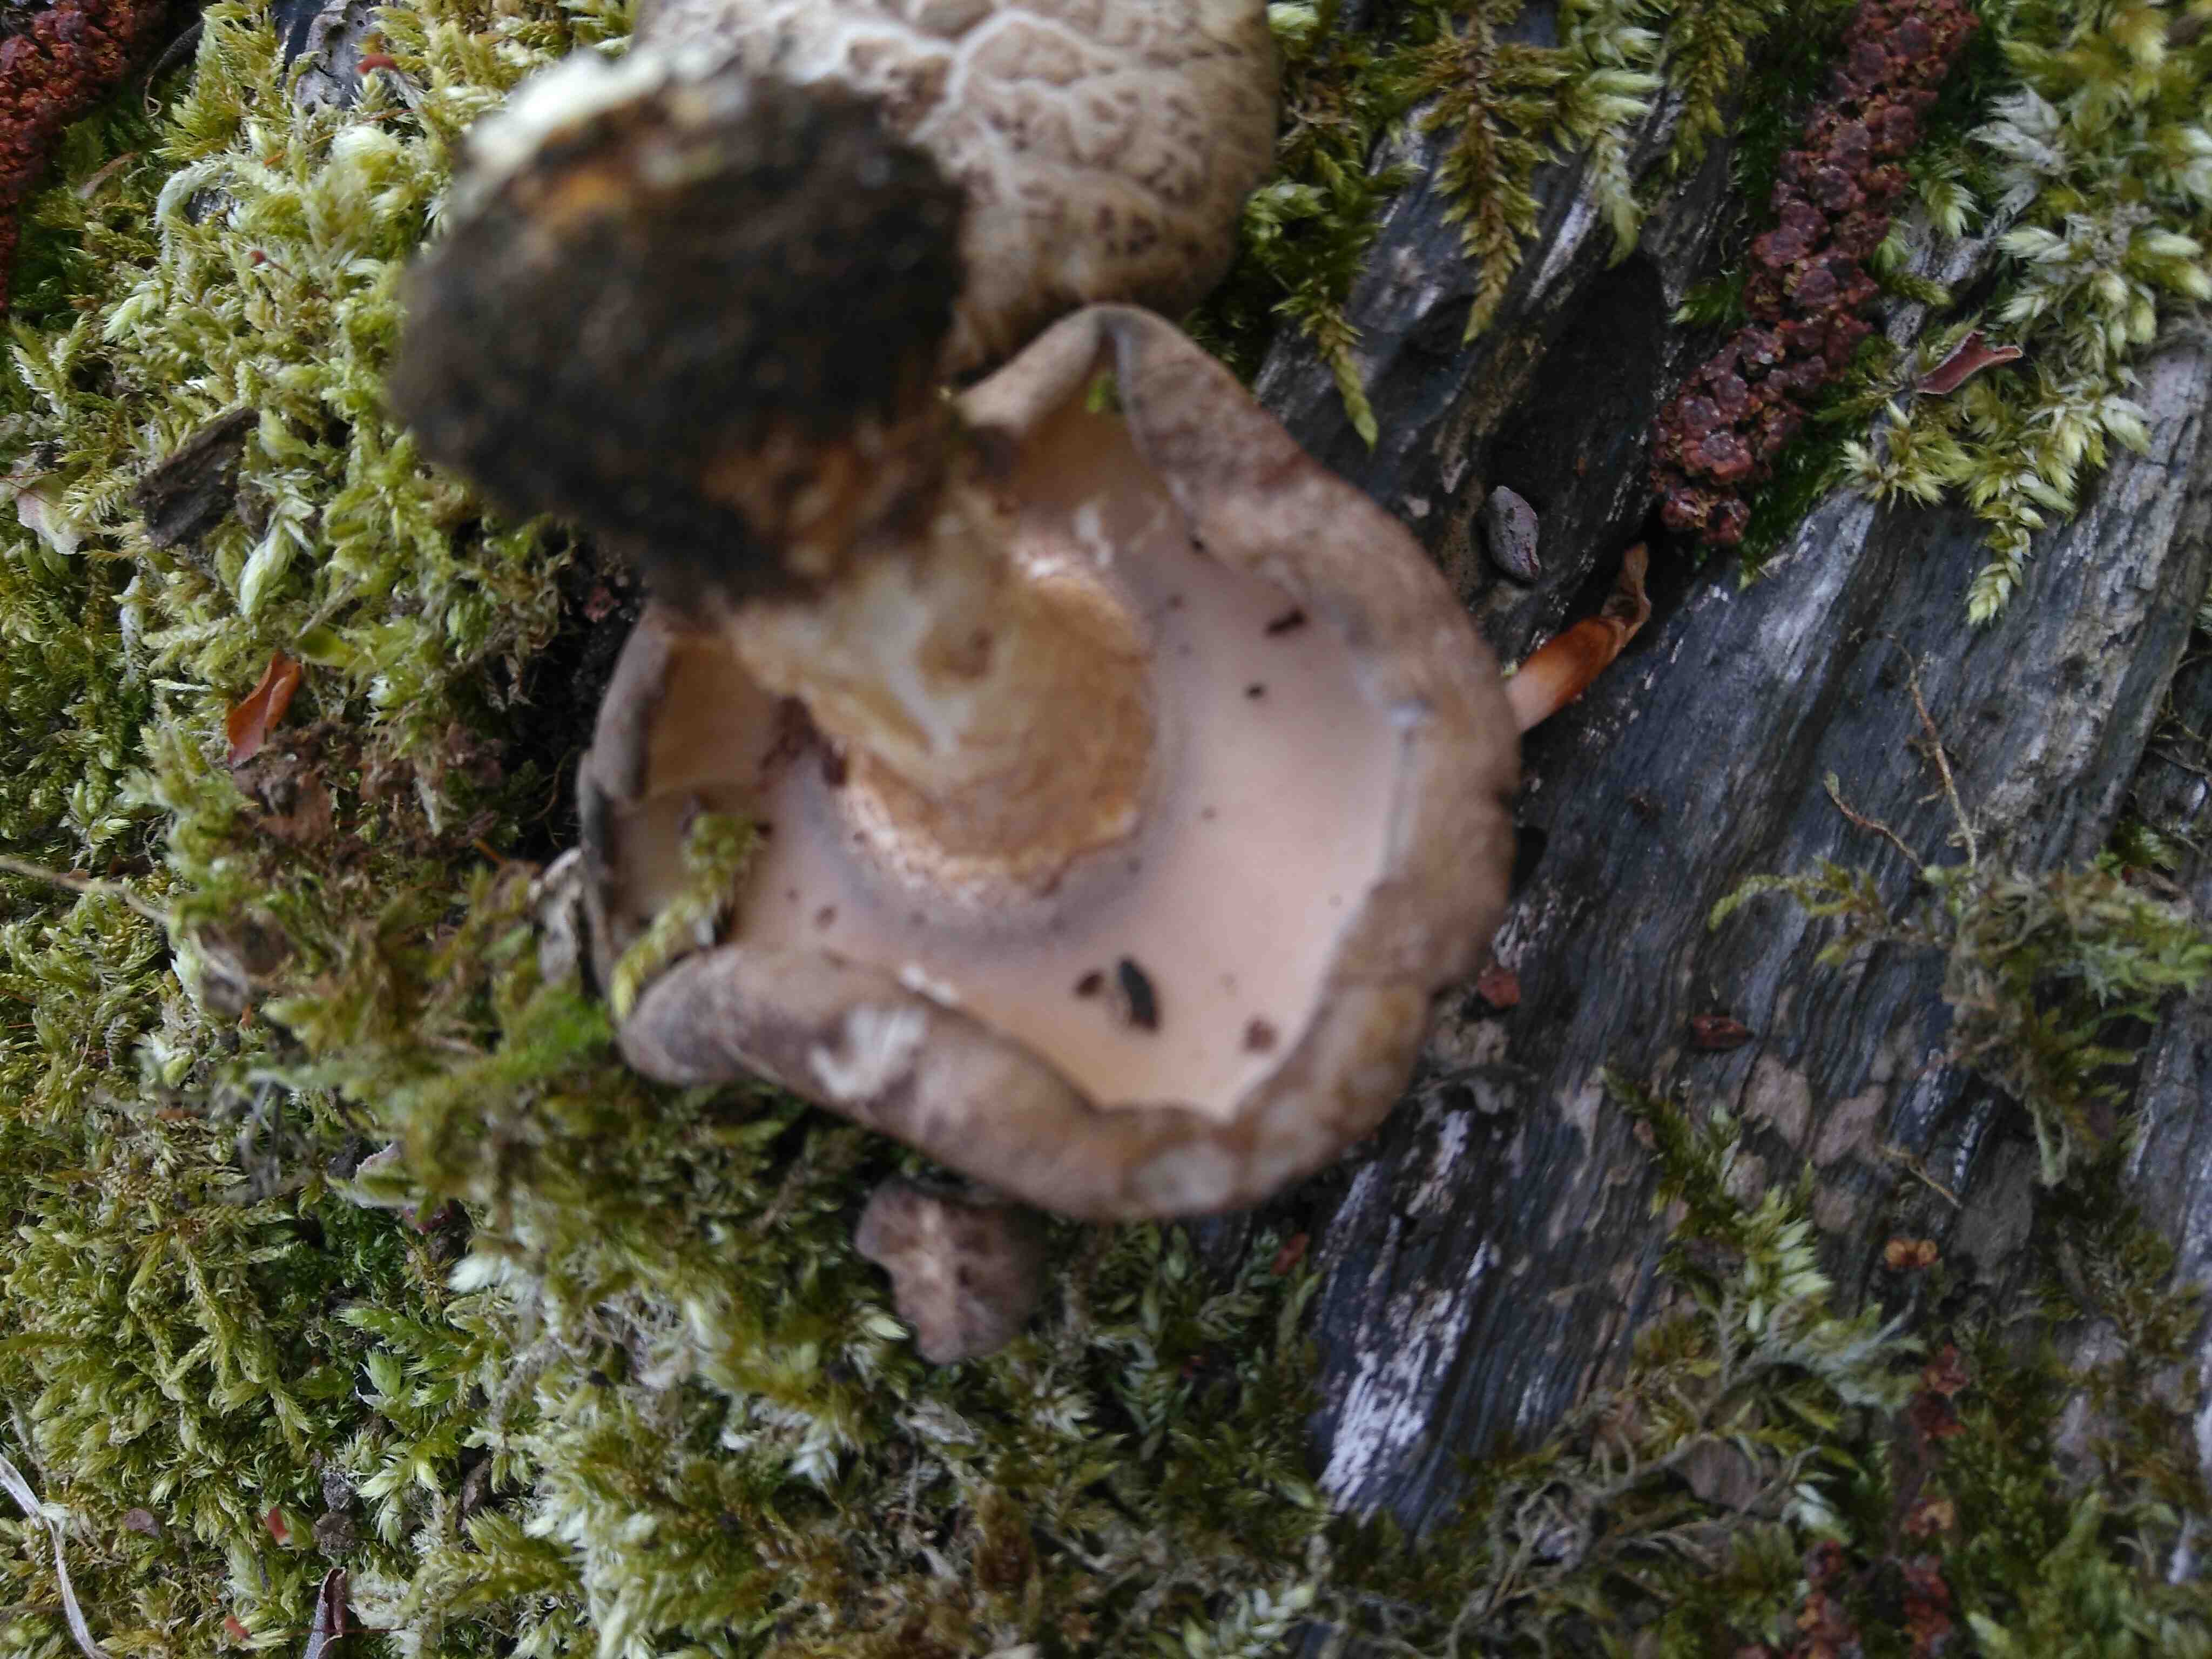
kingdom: Fungi
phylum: Basidiomycota
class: Agaricomycetes
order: Polyporales
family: Polyporaceae
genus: Lentinus
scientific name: Lentinus substrictus
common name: forårs-stilkporesvamp
